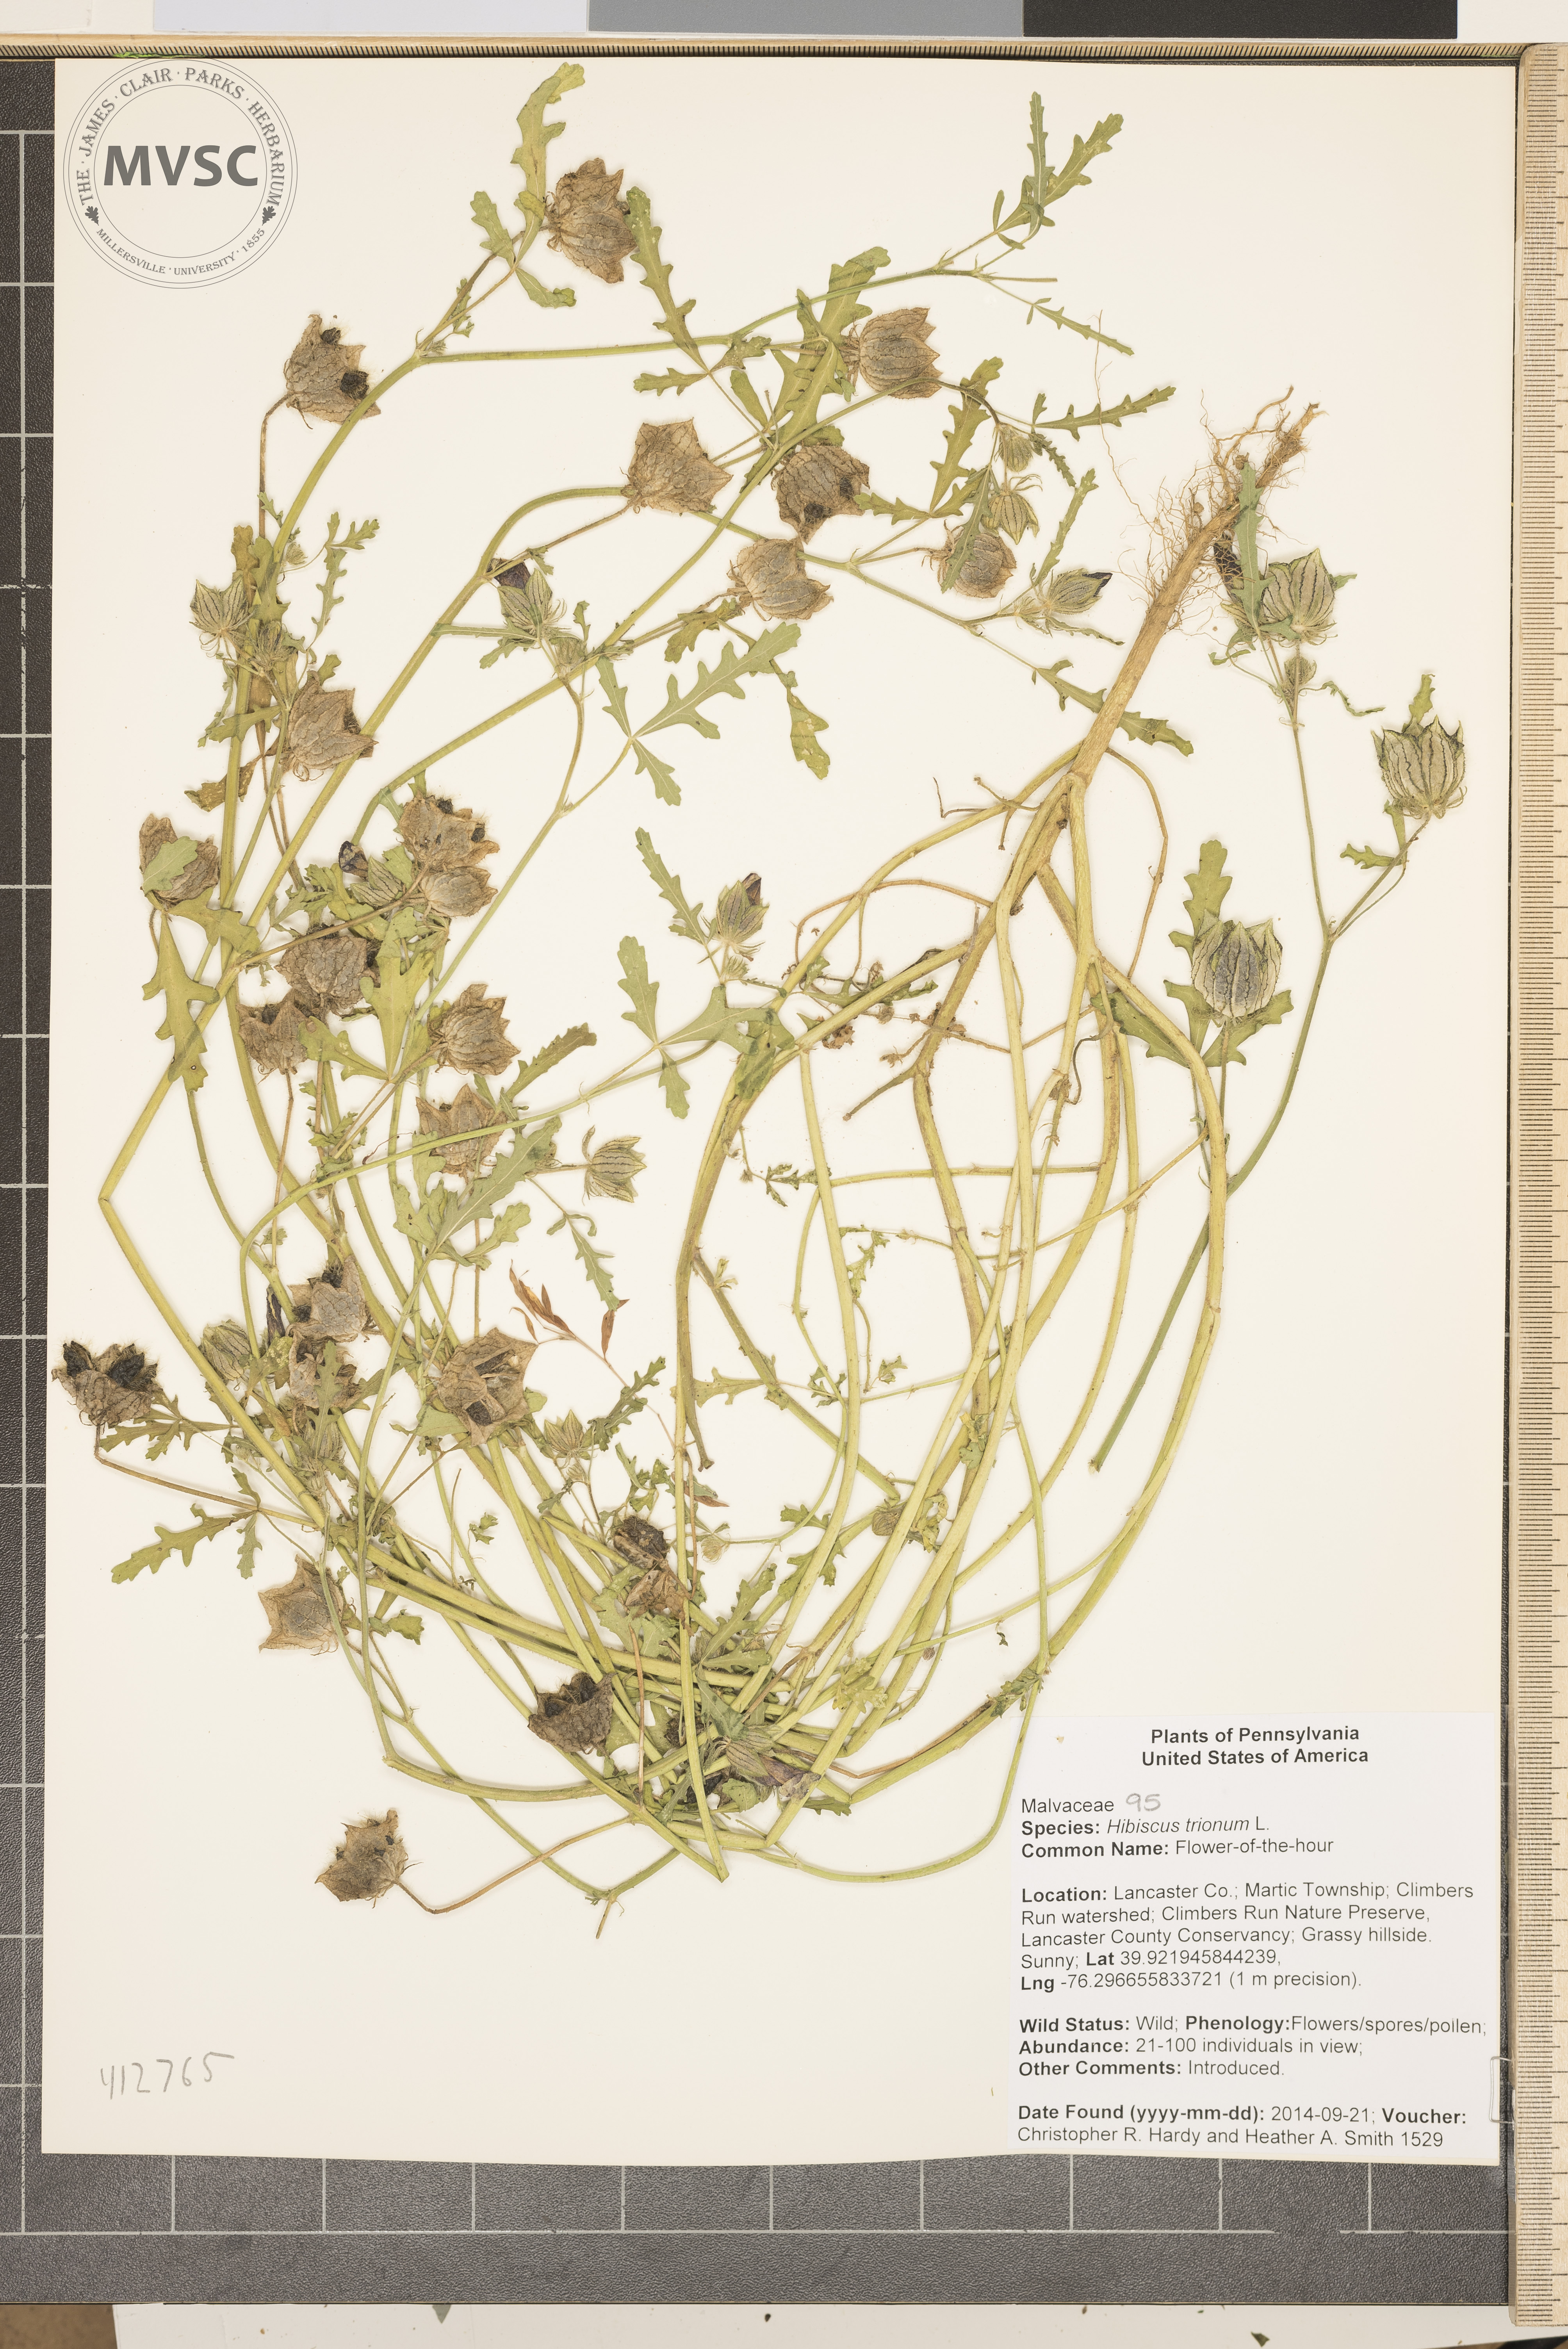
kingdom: Plantae
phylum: Tracheophyta
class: Magnoliopsida
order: Malvales
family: Malvaceae
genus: Hibiscus
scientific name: Hibiscus trionum
